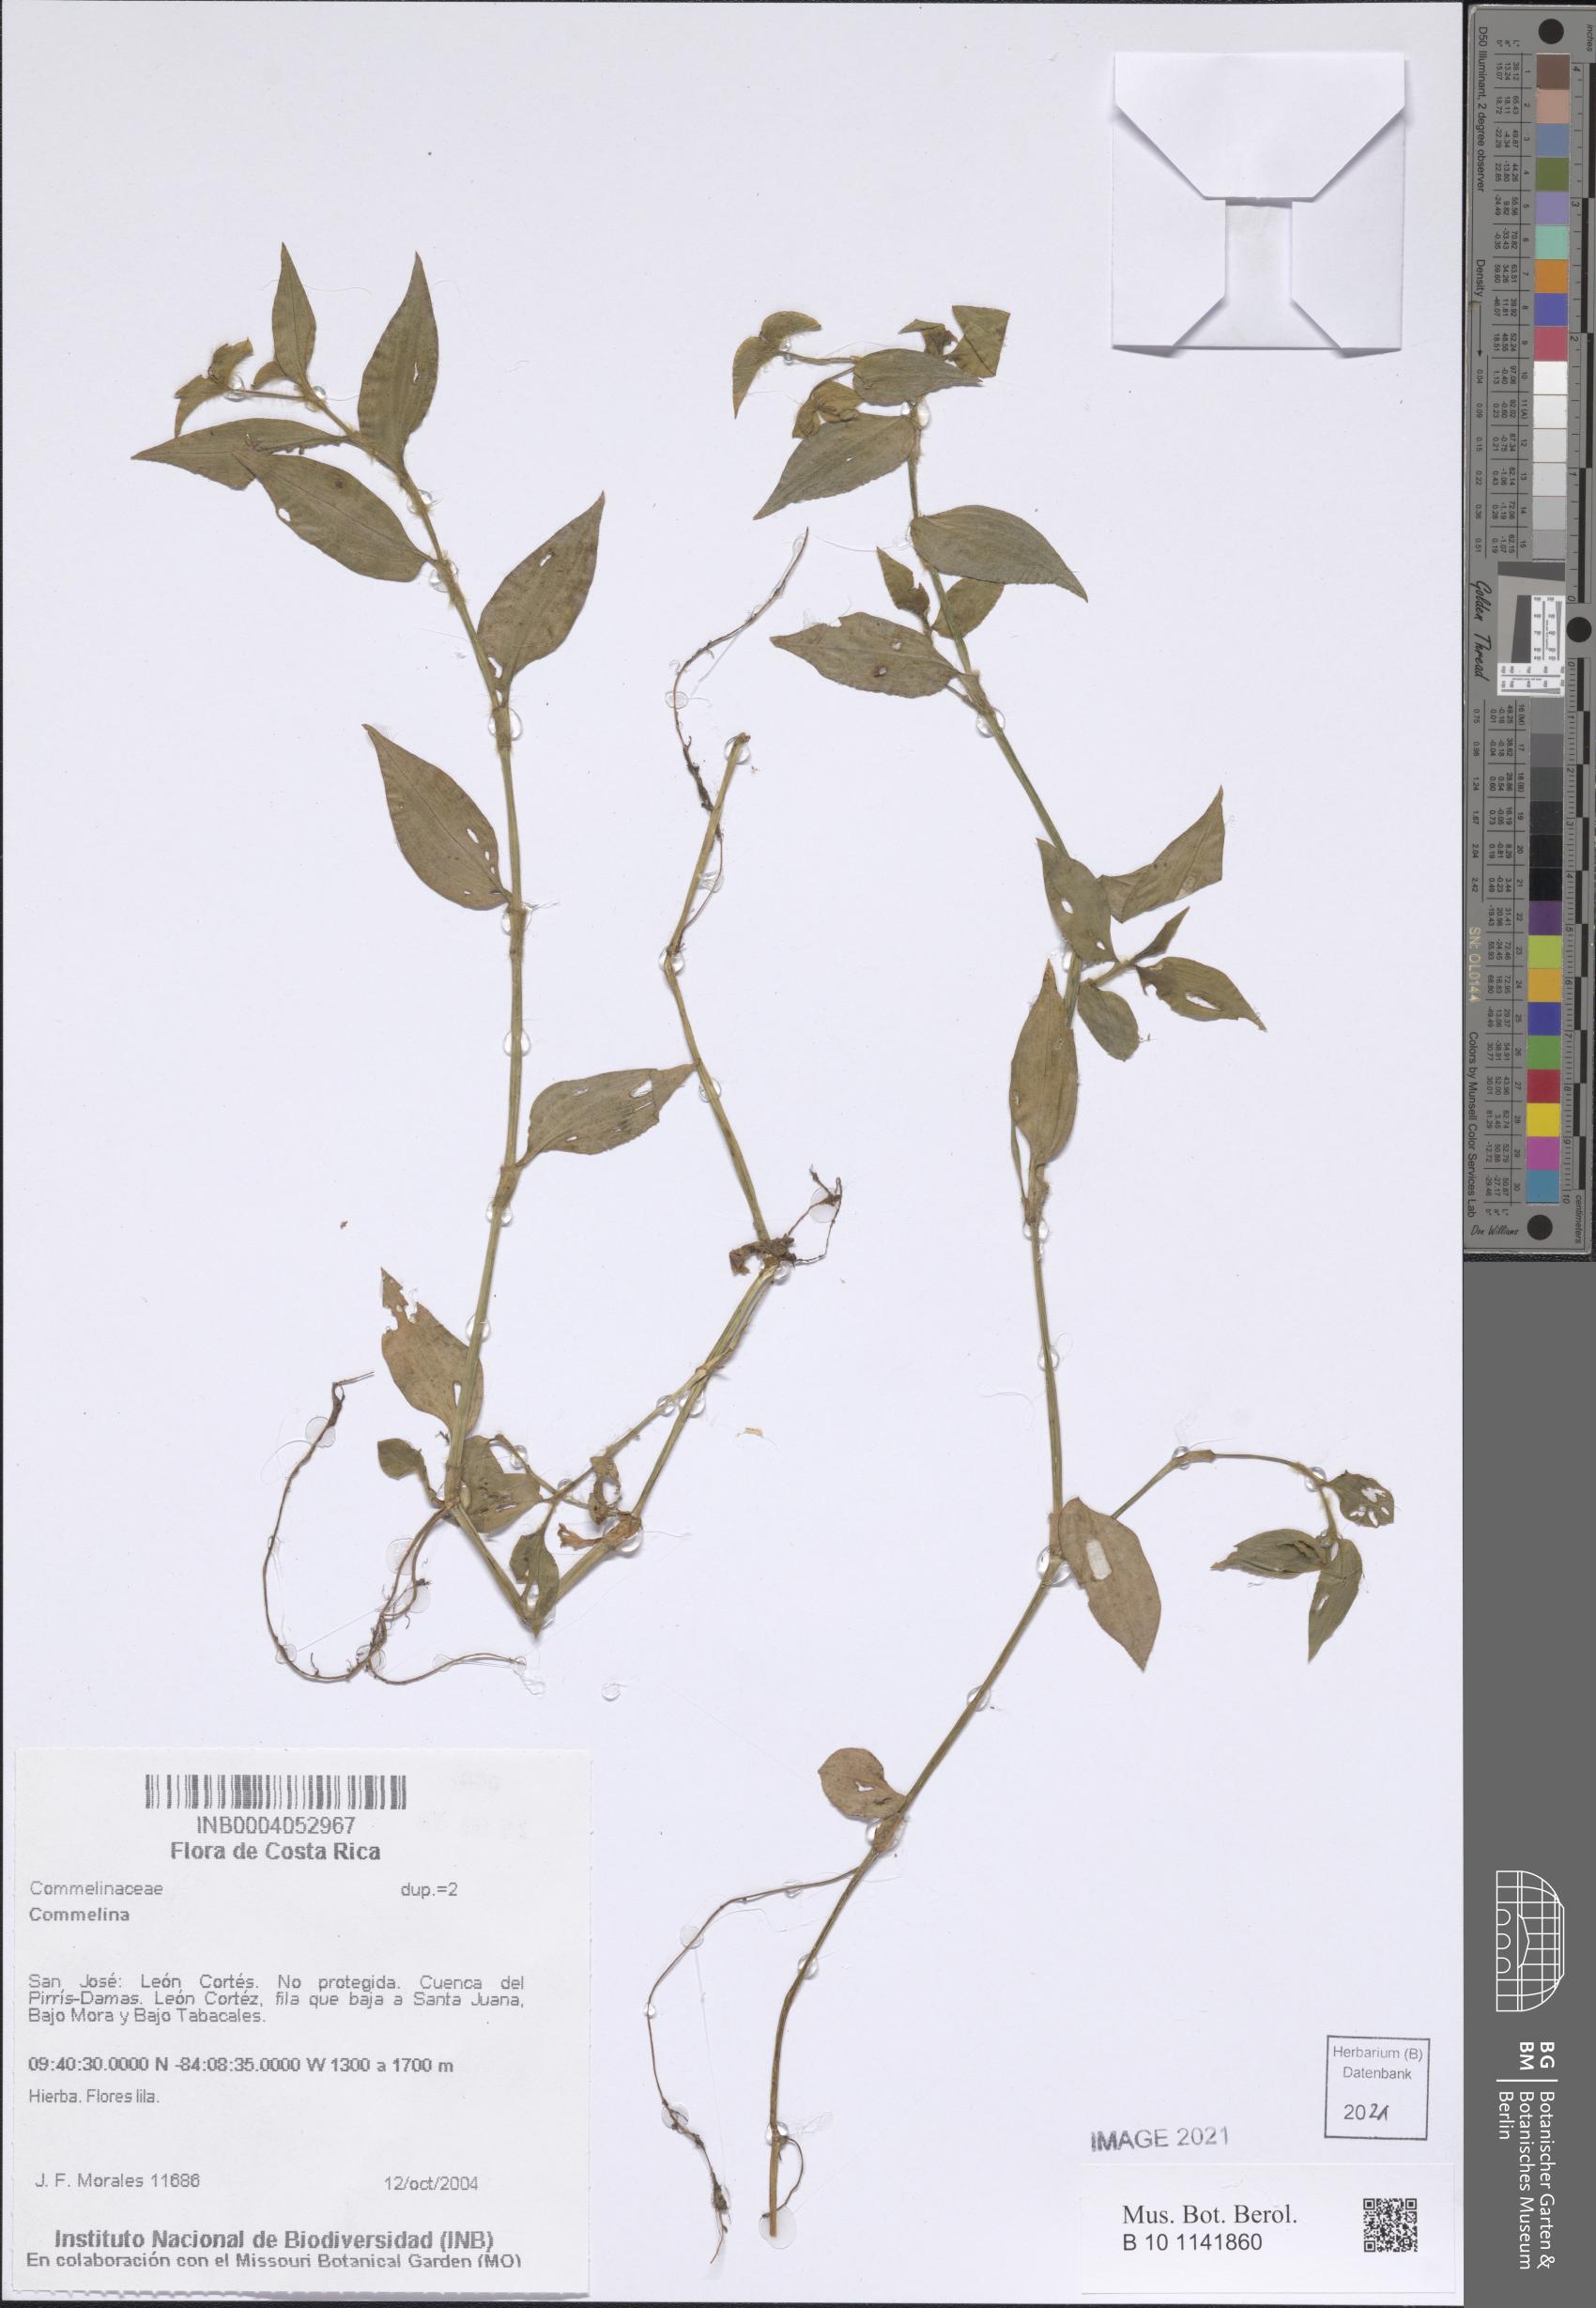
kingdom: Plantae
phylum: Tracheophyta
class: Liliopsida
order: Commelinales
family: Commelinaceae
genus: Commelina
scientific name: Commelina
